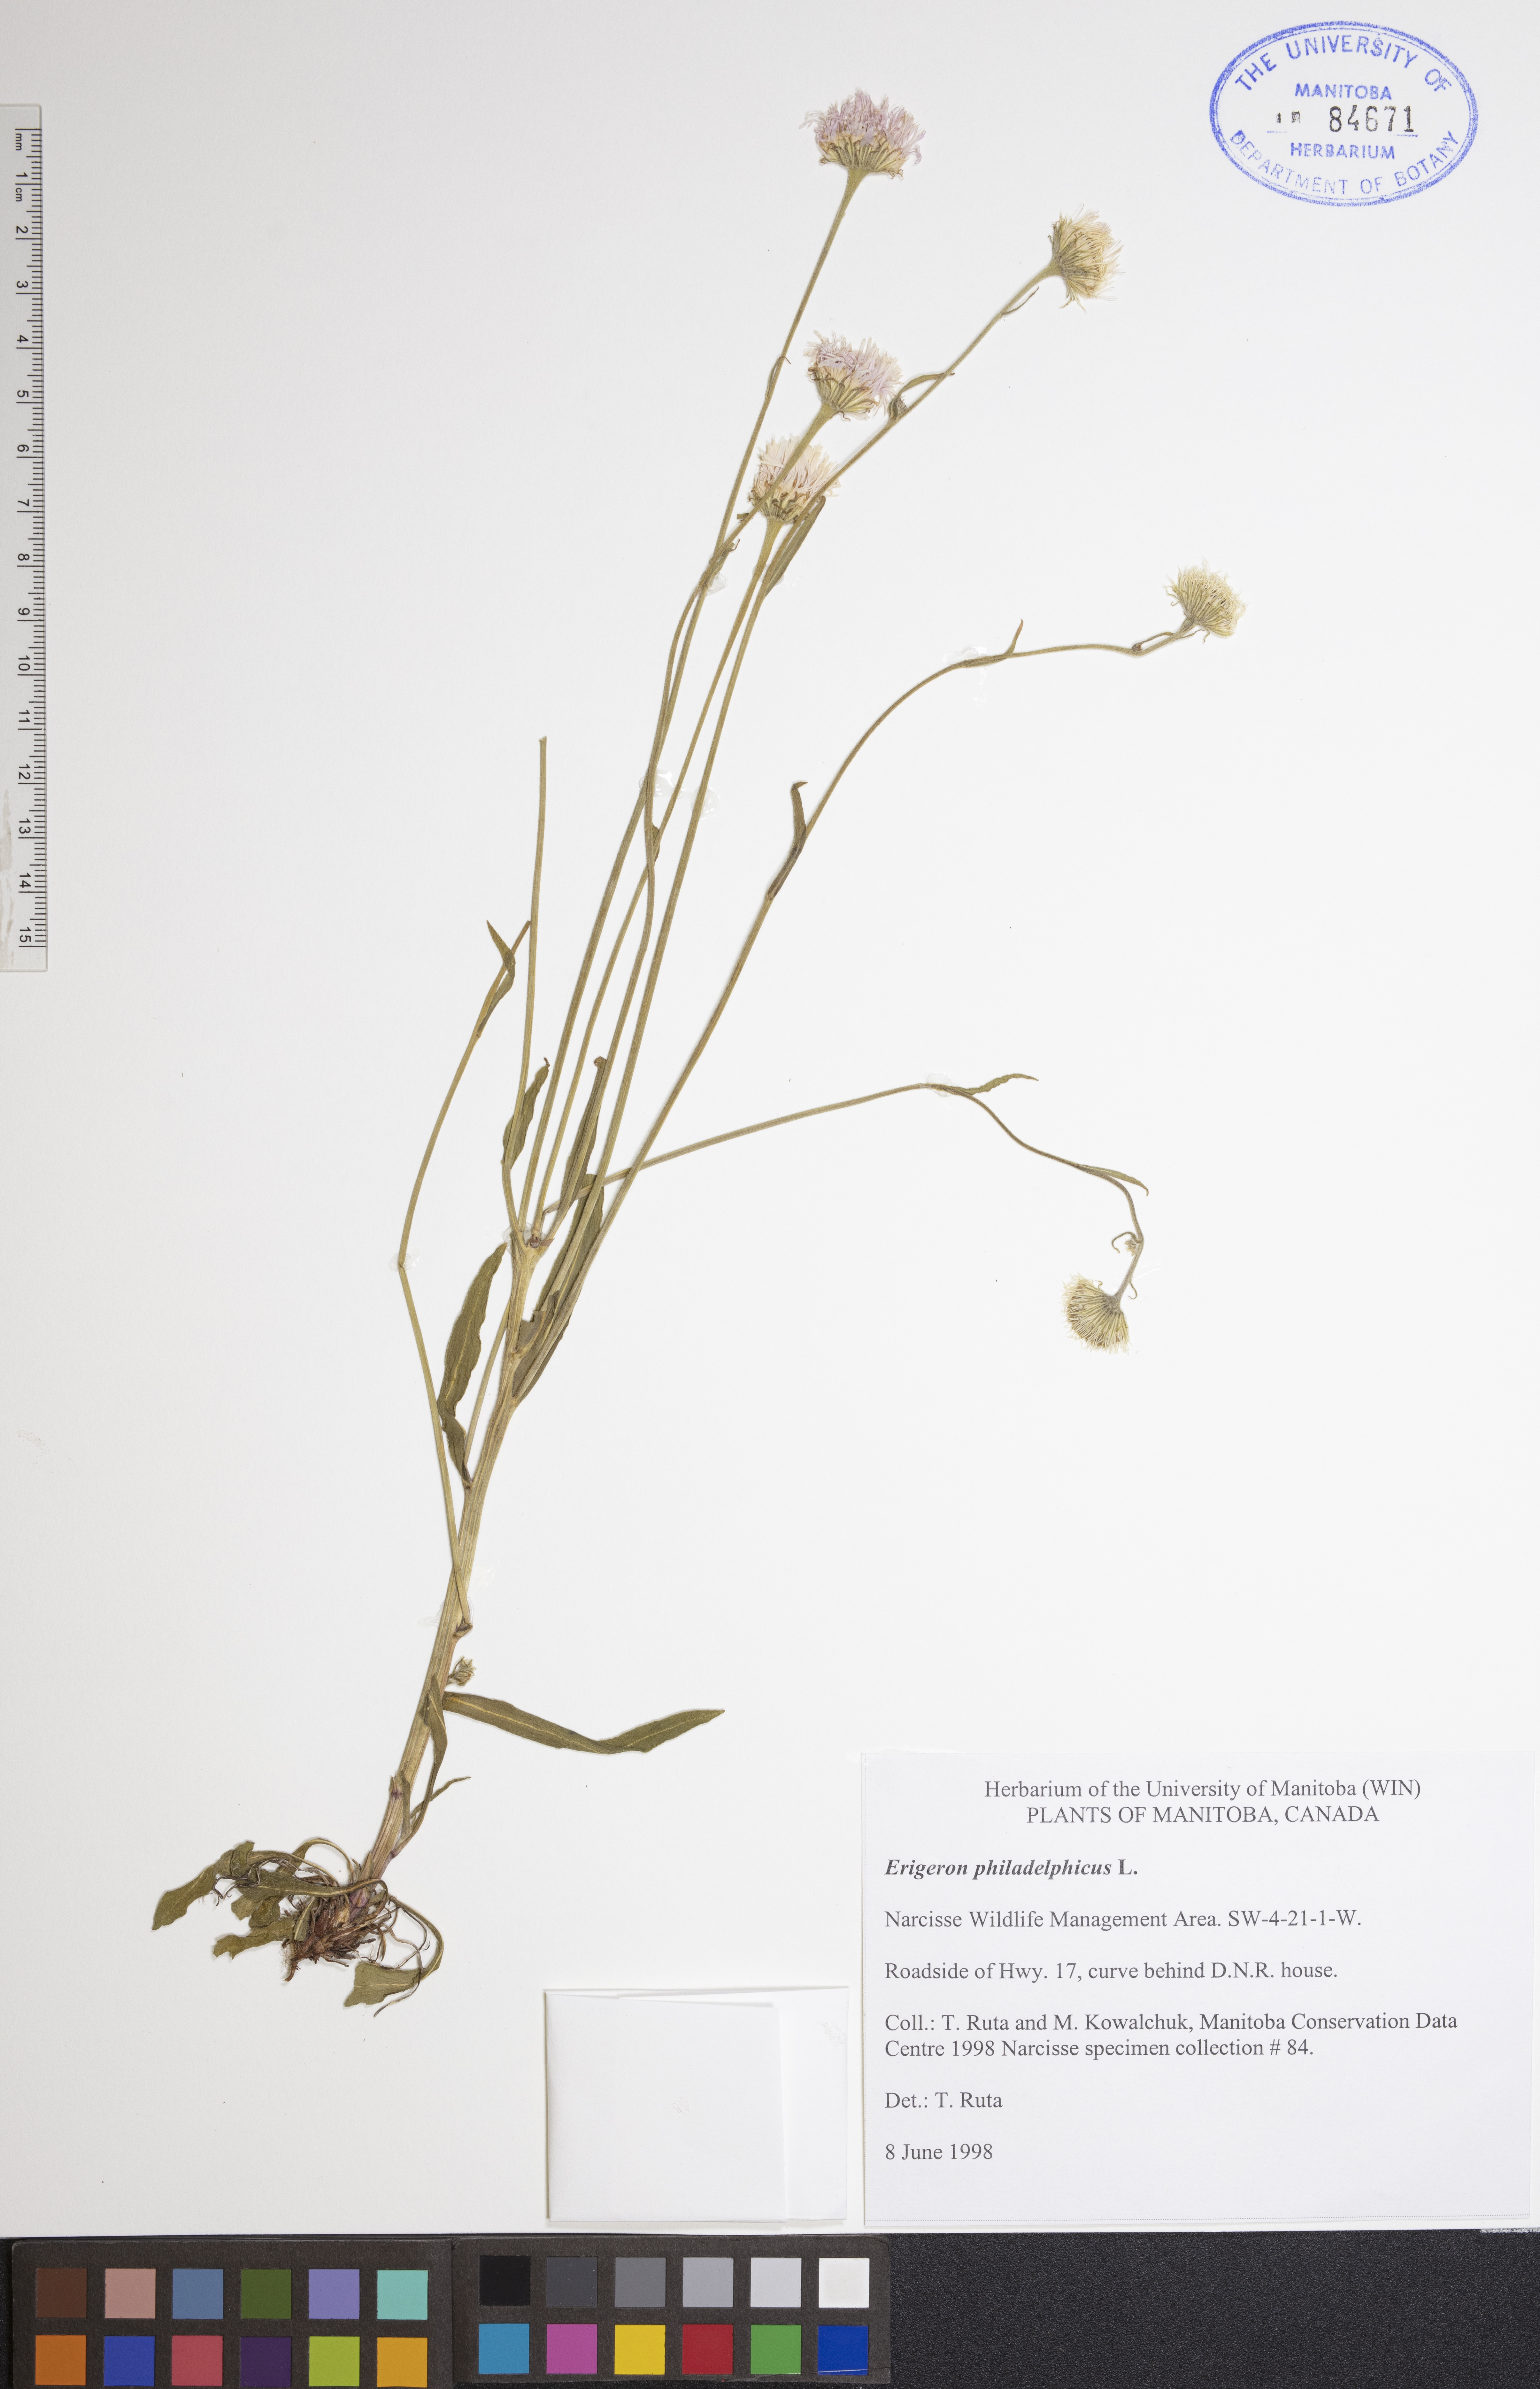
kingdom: Plantae
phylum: Tracheophyta
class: Magnoliopsida
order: Asterales
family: Asteraceae
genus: Erigeron
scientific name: Erigeron philadelphicus
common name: Robin's-plantain
